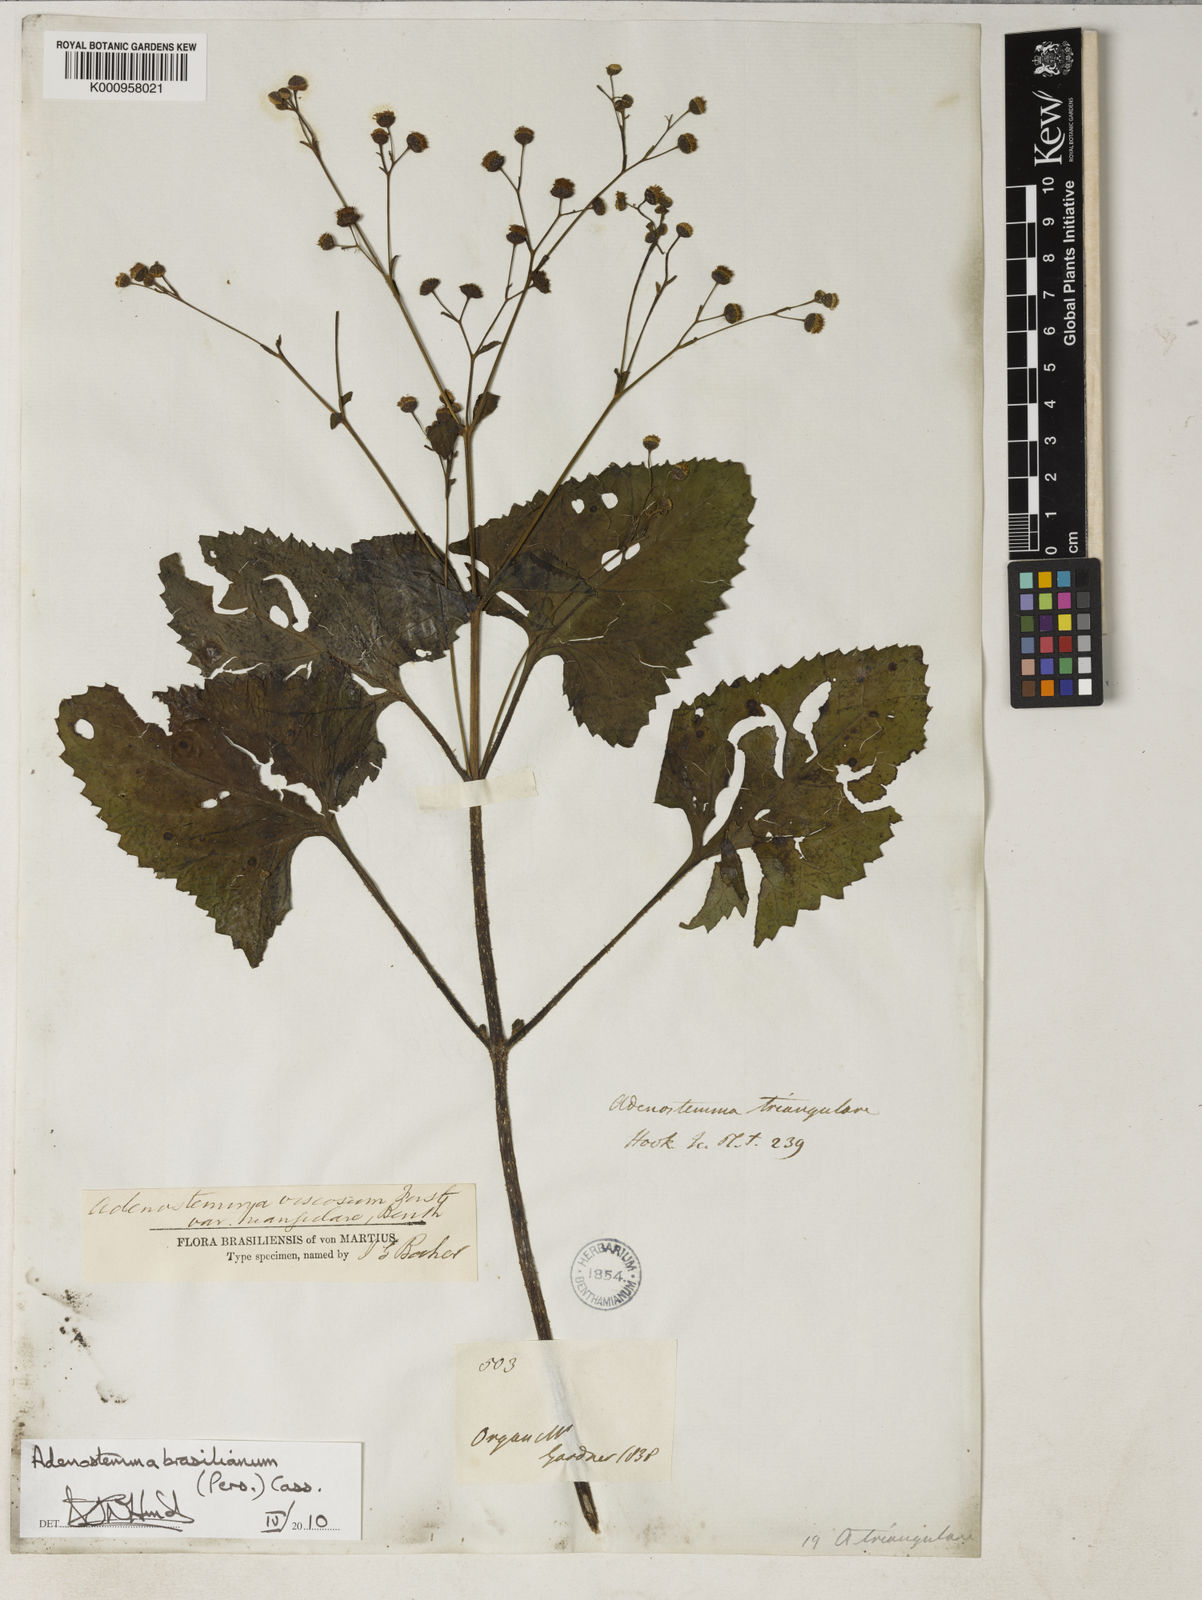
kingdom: Plantae
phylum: Tracheophyta
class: Magnoliopsida
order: Asterales
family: Asteraceae
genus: Adenostemma
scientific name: Adenostemma brasilianum
